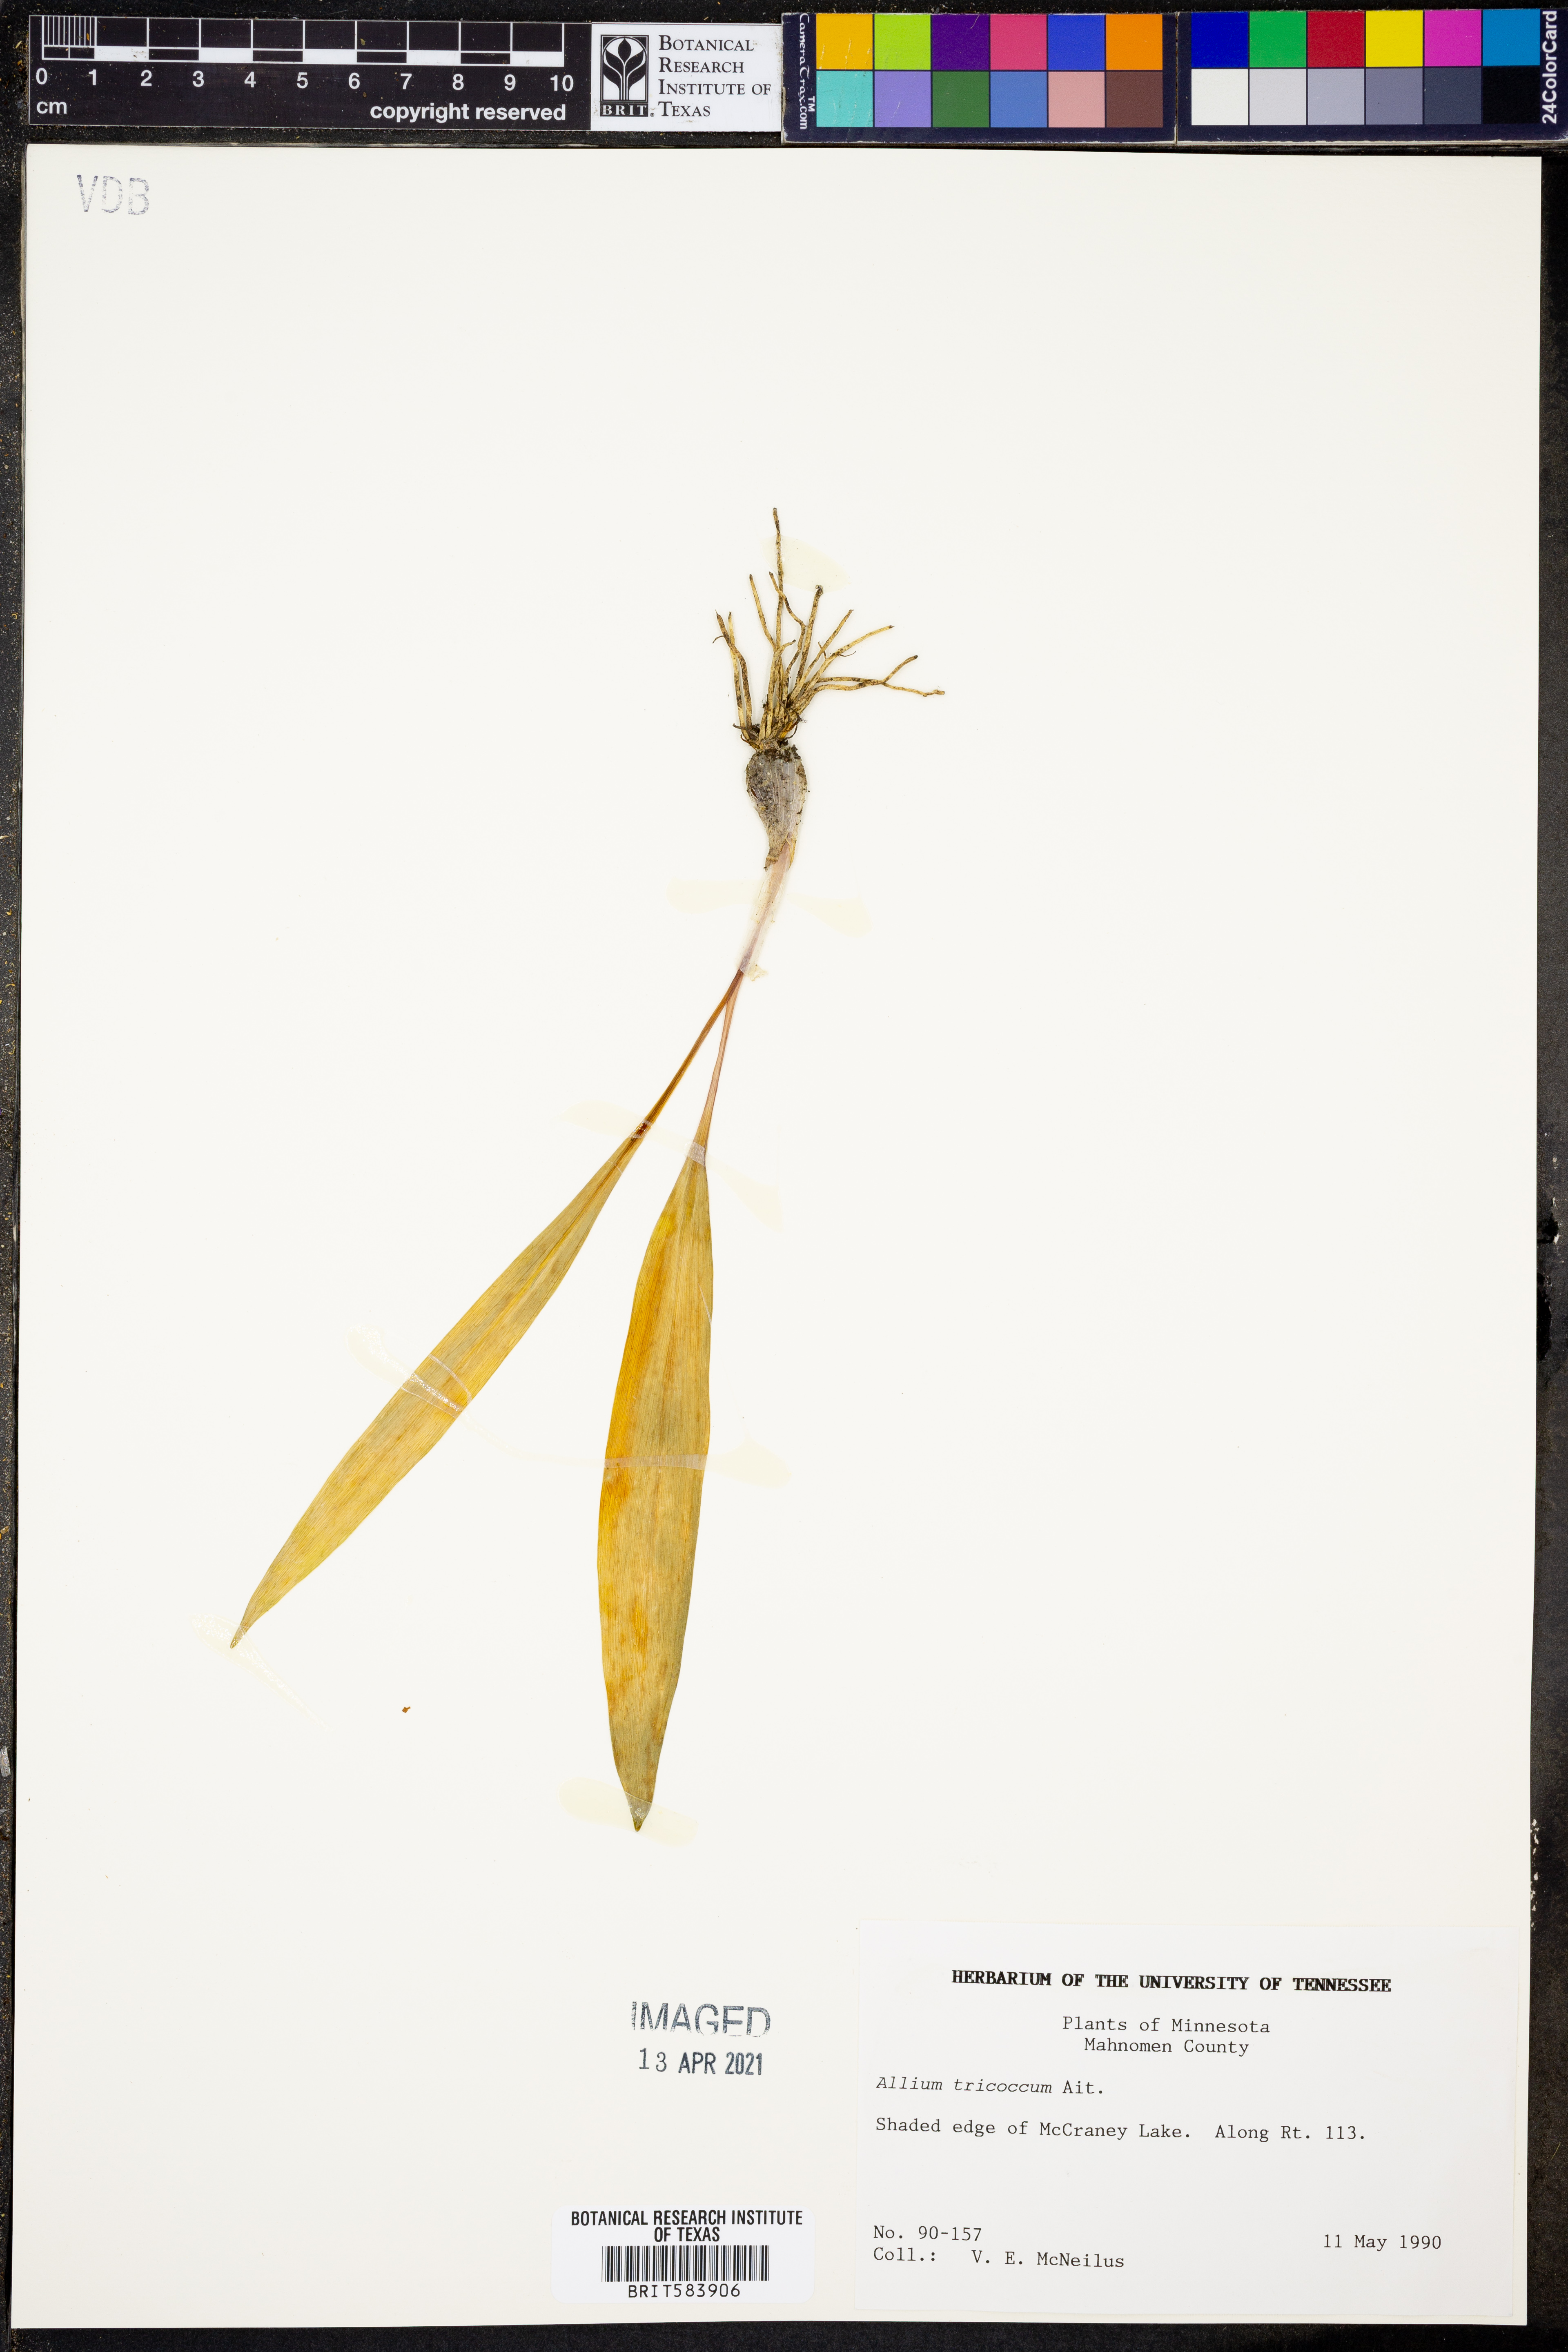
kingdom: Plantae
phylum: Tracheophyta
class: Liliopsida
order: Asparagales
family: Amaryllidaceae
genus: Allium
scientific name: Allium tricoccum
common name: Ramp
